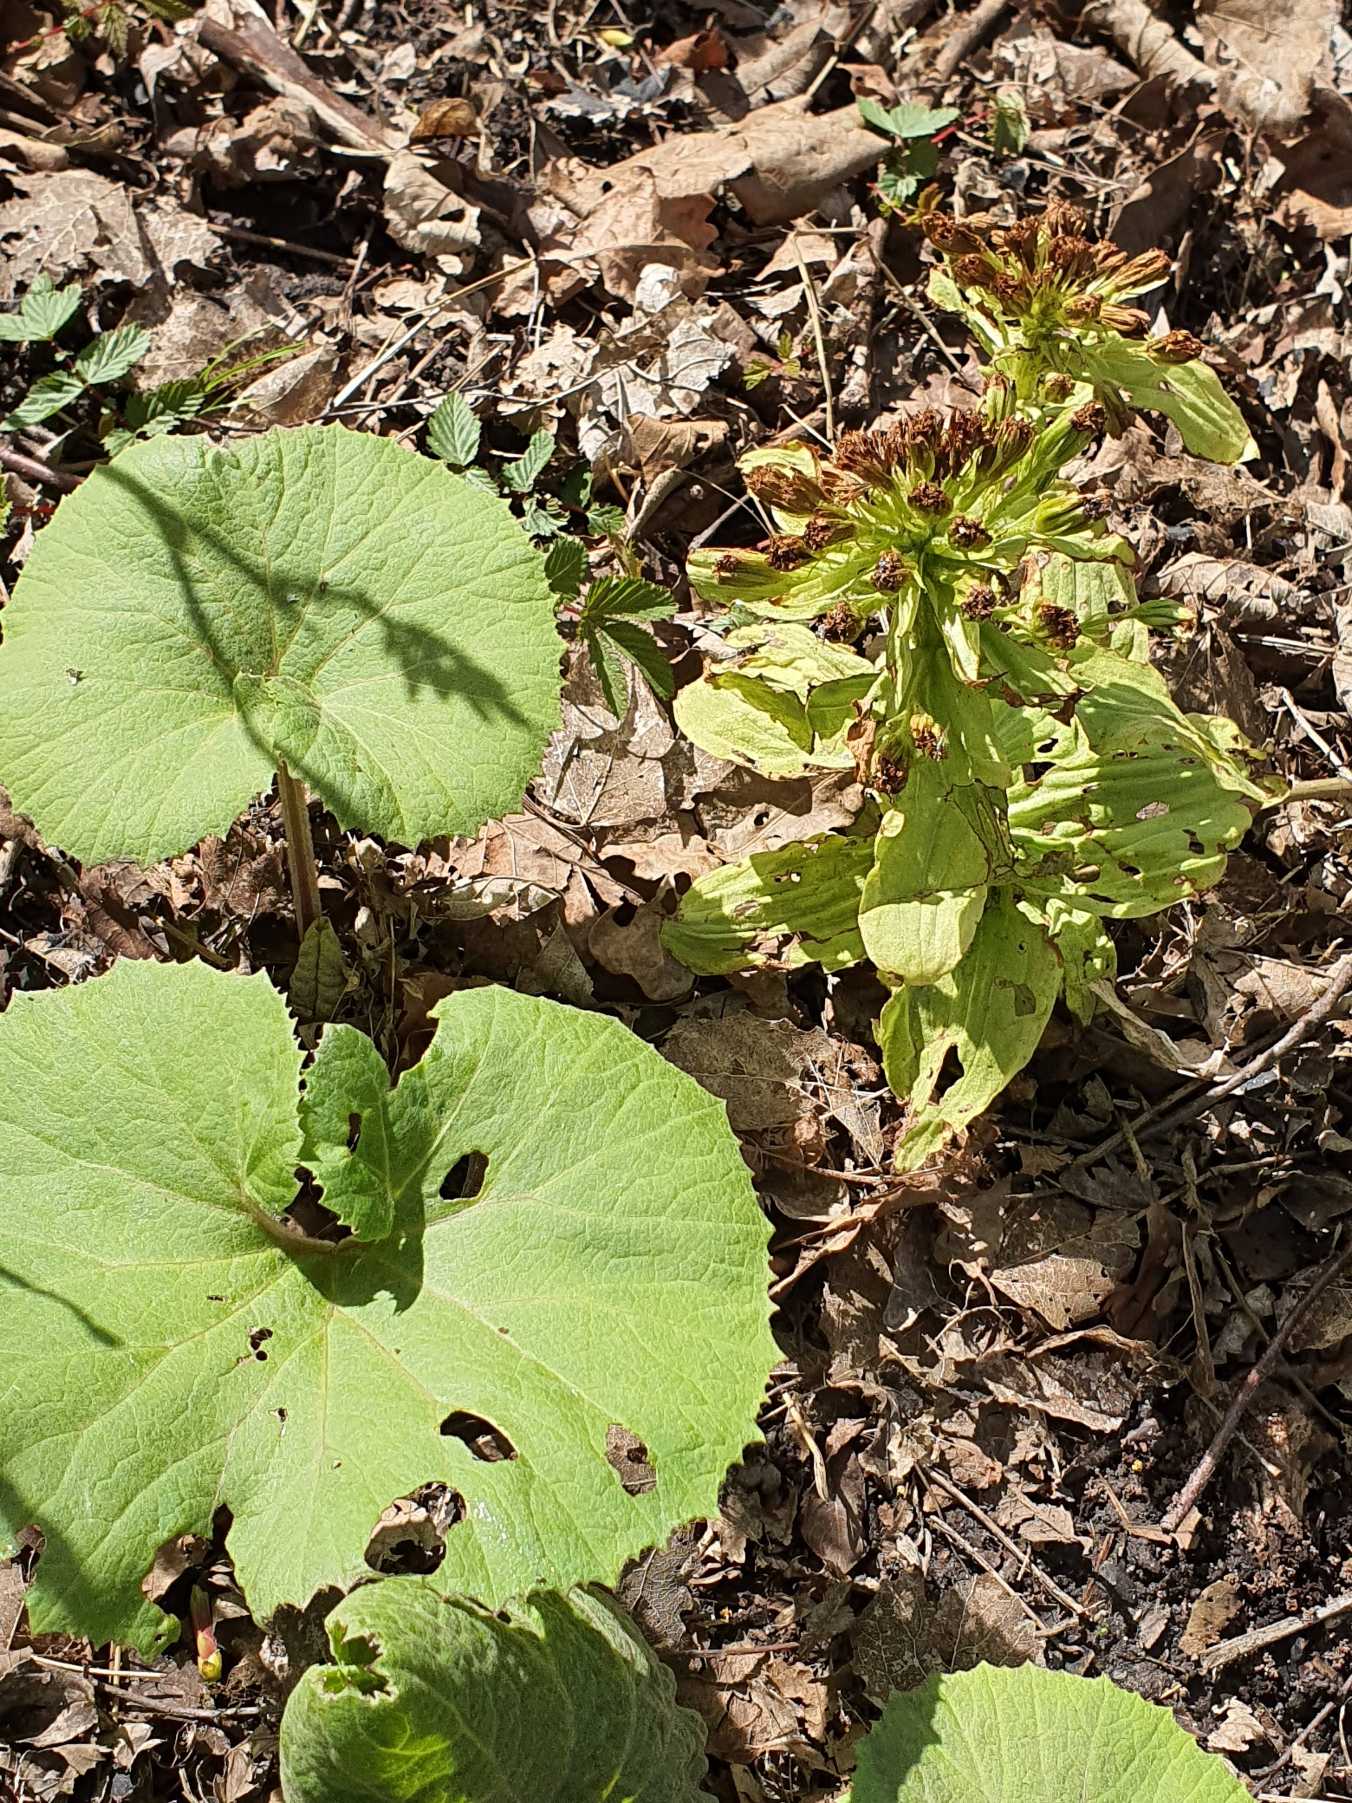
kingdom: Plantae
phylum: Tracheophyta
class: Magnoliopsida
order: Asterales
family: Asteraceae
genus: Petasites
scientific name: Petasites japonicus
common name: Japansk hestehov
